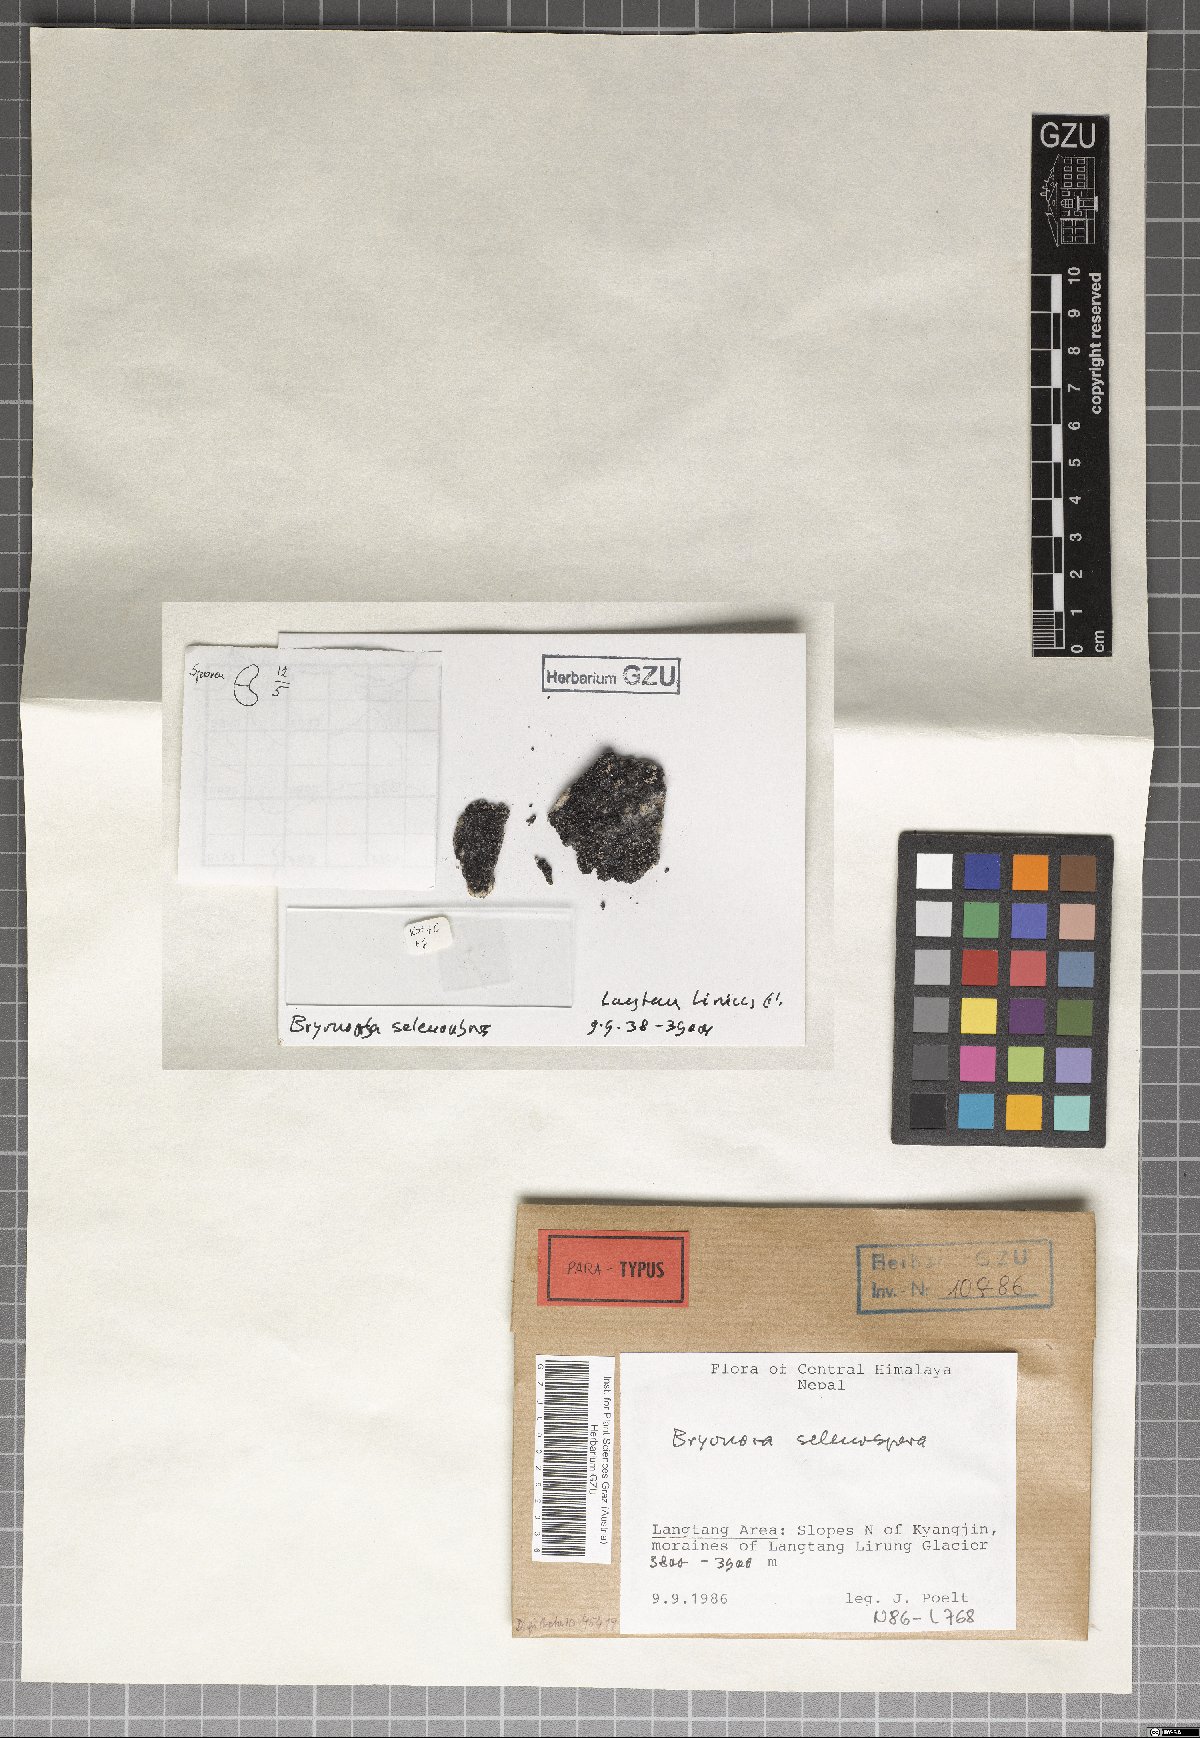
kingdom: Fungi
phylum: Ascomycota
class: Lecanoromycetes
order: Lecanorales
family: Lecanoraceae
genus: Bryodina
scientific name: Bryodina selenospora
